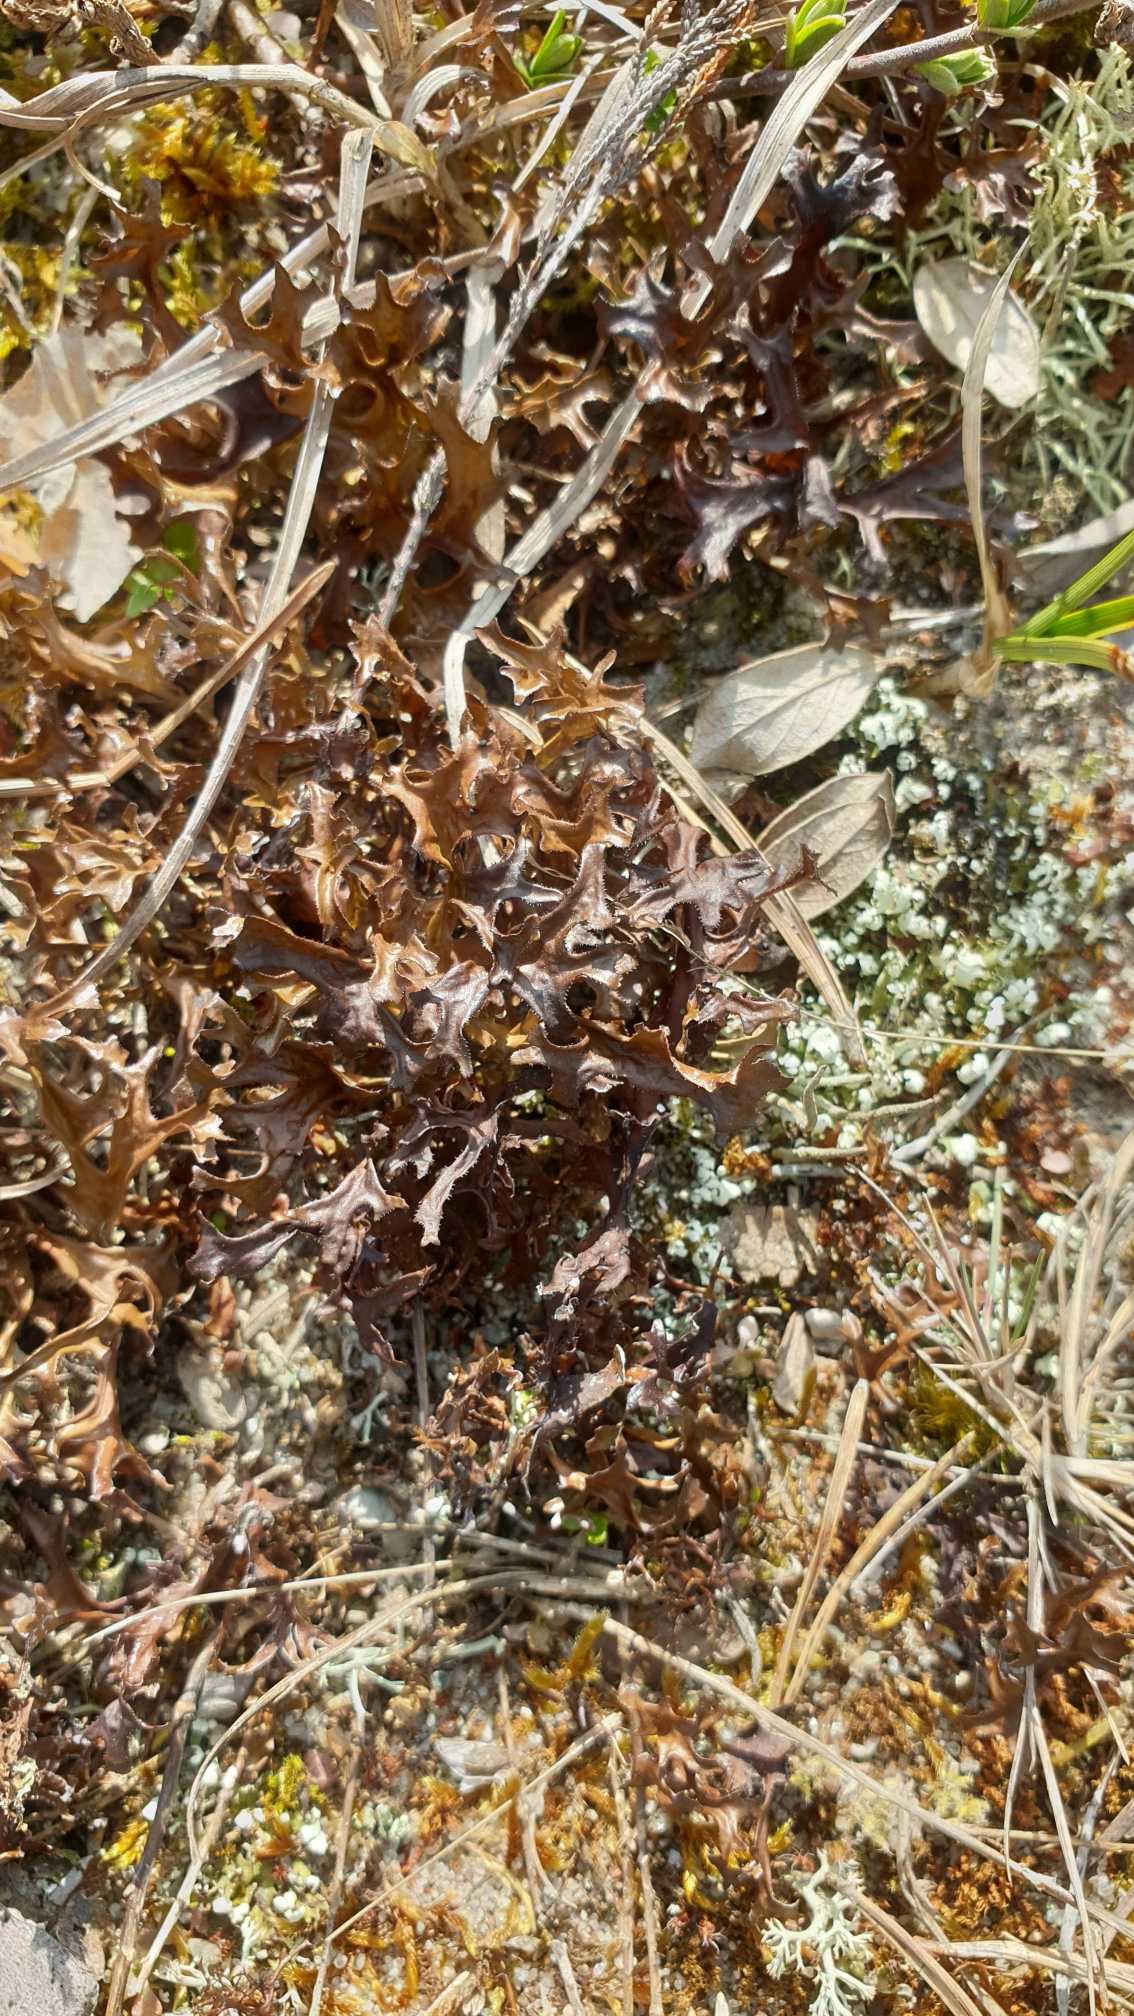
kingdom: Fungi
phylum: Ascomycota
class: Lecanoromycetes
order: Lecanorales
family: Parmeliaceae
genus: Cetraria
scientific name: Cetraria islandica
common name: Islandsk kruslav
